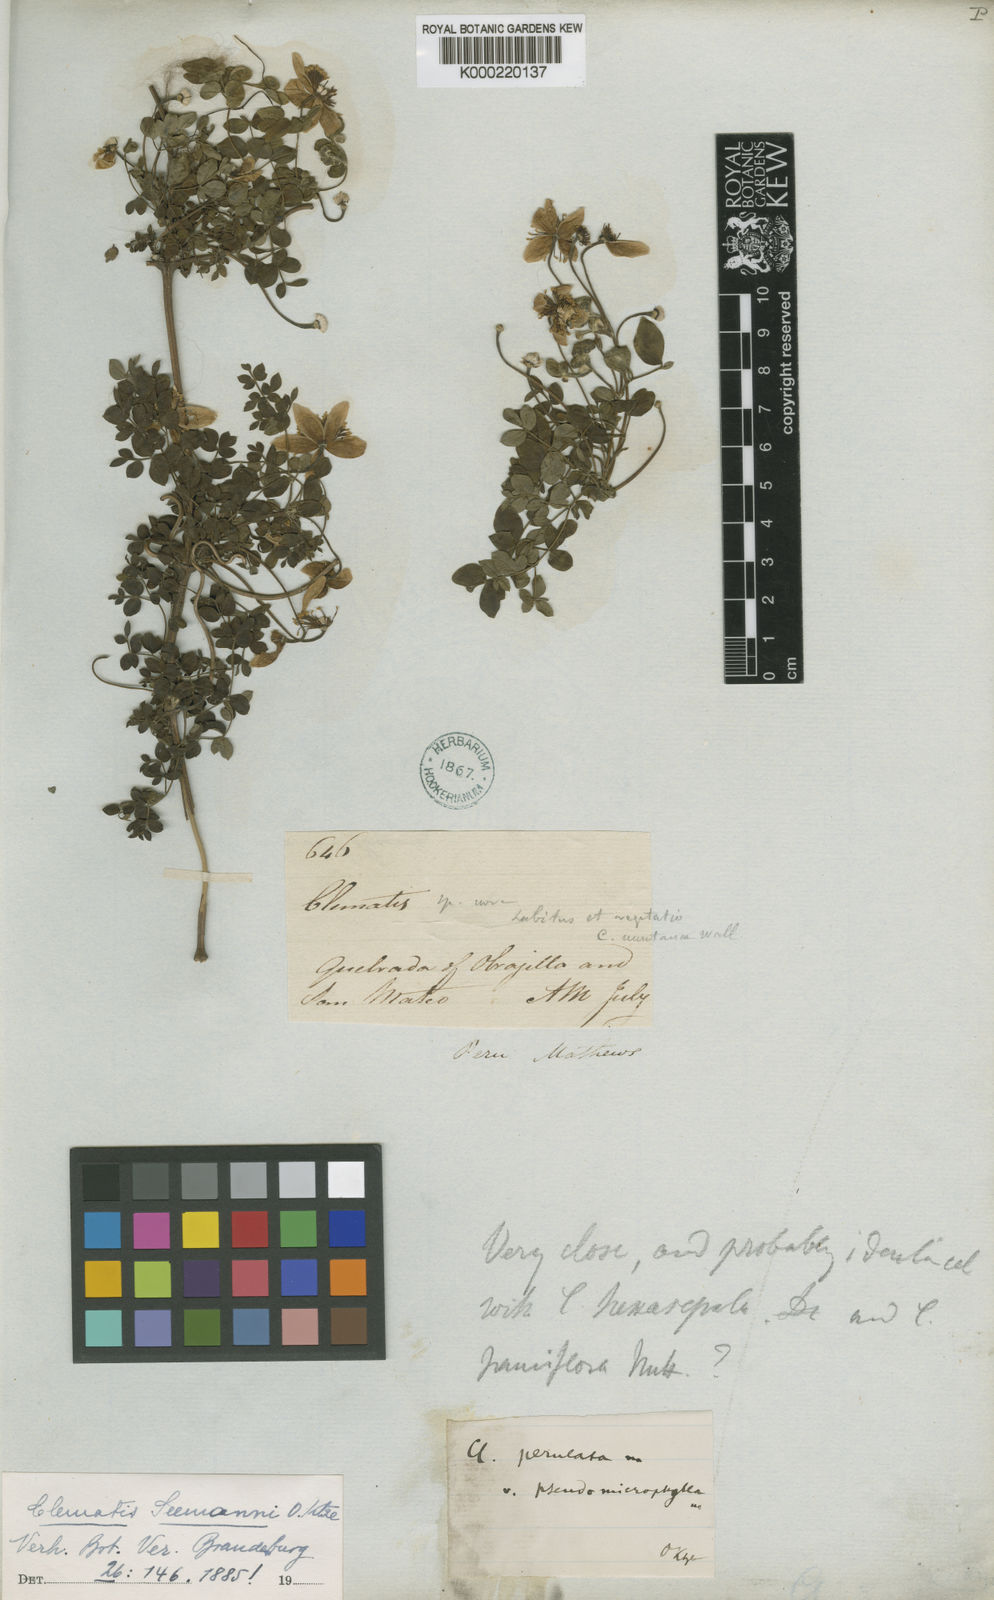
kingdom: Plantae
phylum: Tracheophyta
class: Magnoliopsida
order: Ranunculales
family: Ranunculaceae
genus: Clematis
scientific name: Clematis millefoliolata
